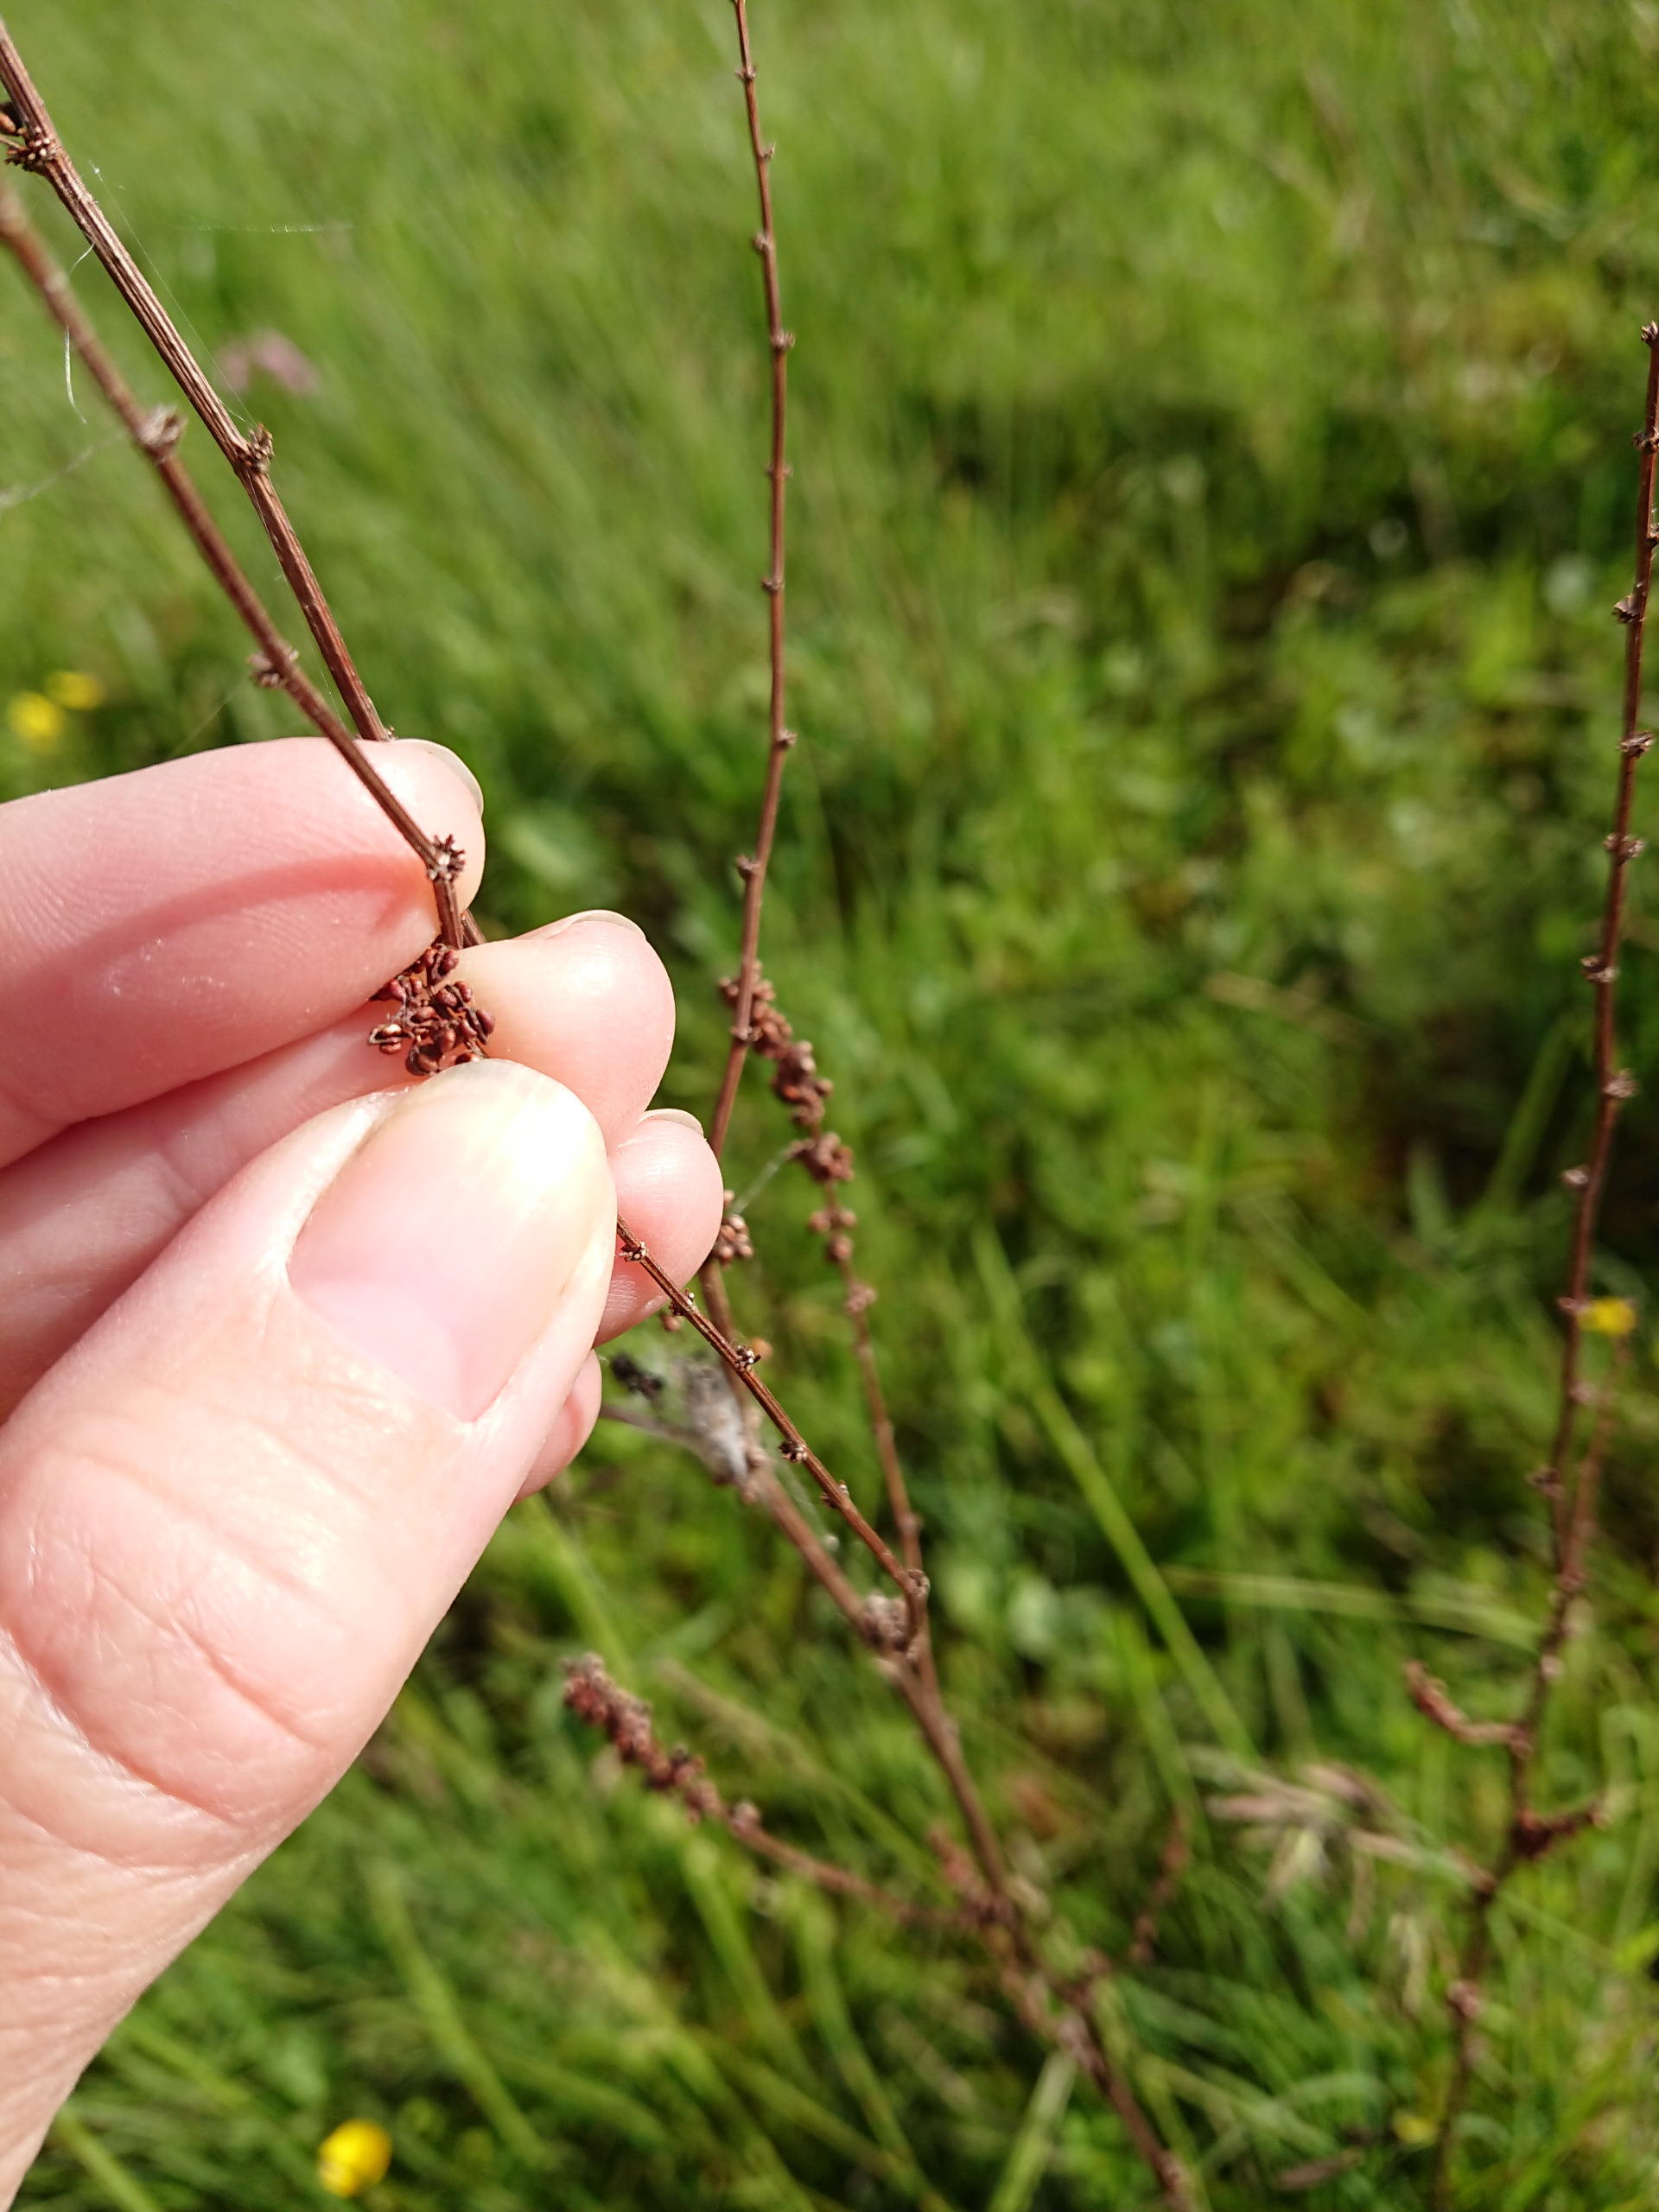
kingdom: Plantae
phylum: Tracheophyta
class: Magnoliopsida
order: Caryophyllales
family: Polygonaceae
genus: Rumex
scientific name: Rumex conglomeratus
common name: Nøgle-skræppe
